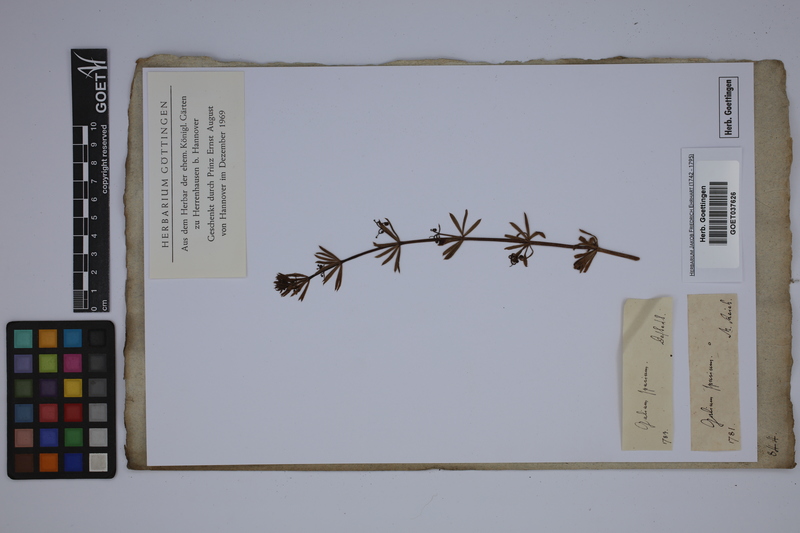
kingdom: Plantae
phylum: Tracheophyta
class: Magnoliopsida
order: Gentianales
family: Rubiaceae
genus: Galium
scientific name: Galium spurium
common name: False cleavers
